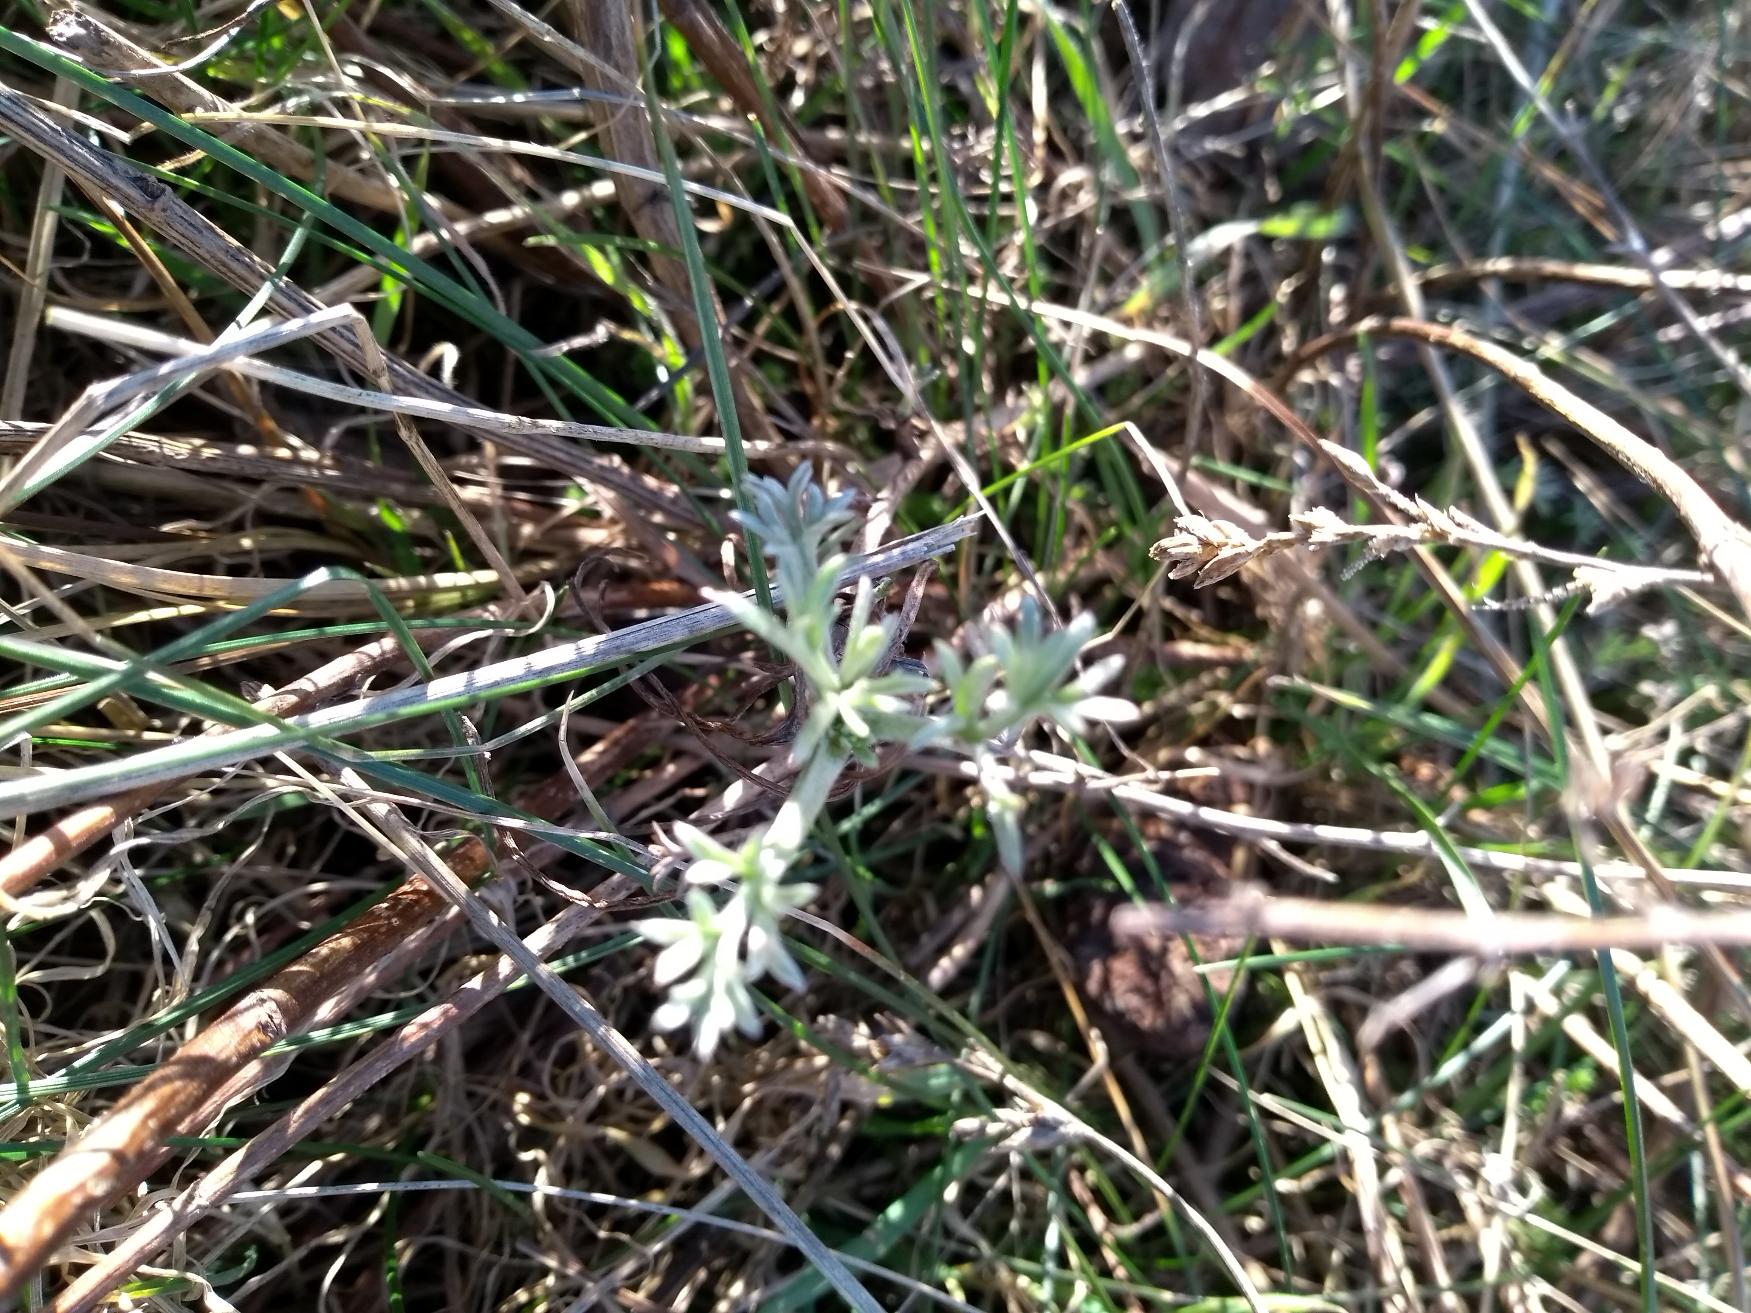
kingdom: Plantae
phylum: Tracheophyta
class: Magnoliopsida
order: Asterales
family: Asteraceae
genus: Artemisia
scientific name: Artemisia maritima
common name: Strandmalurt
